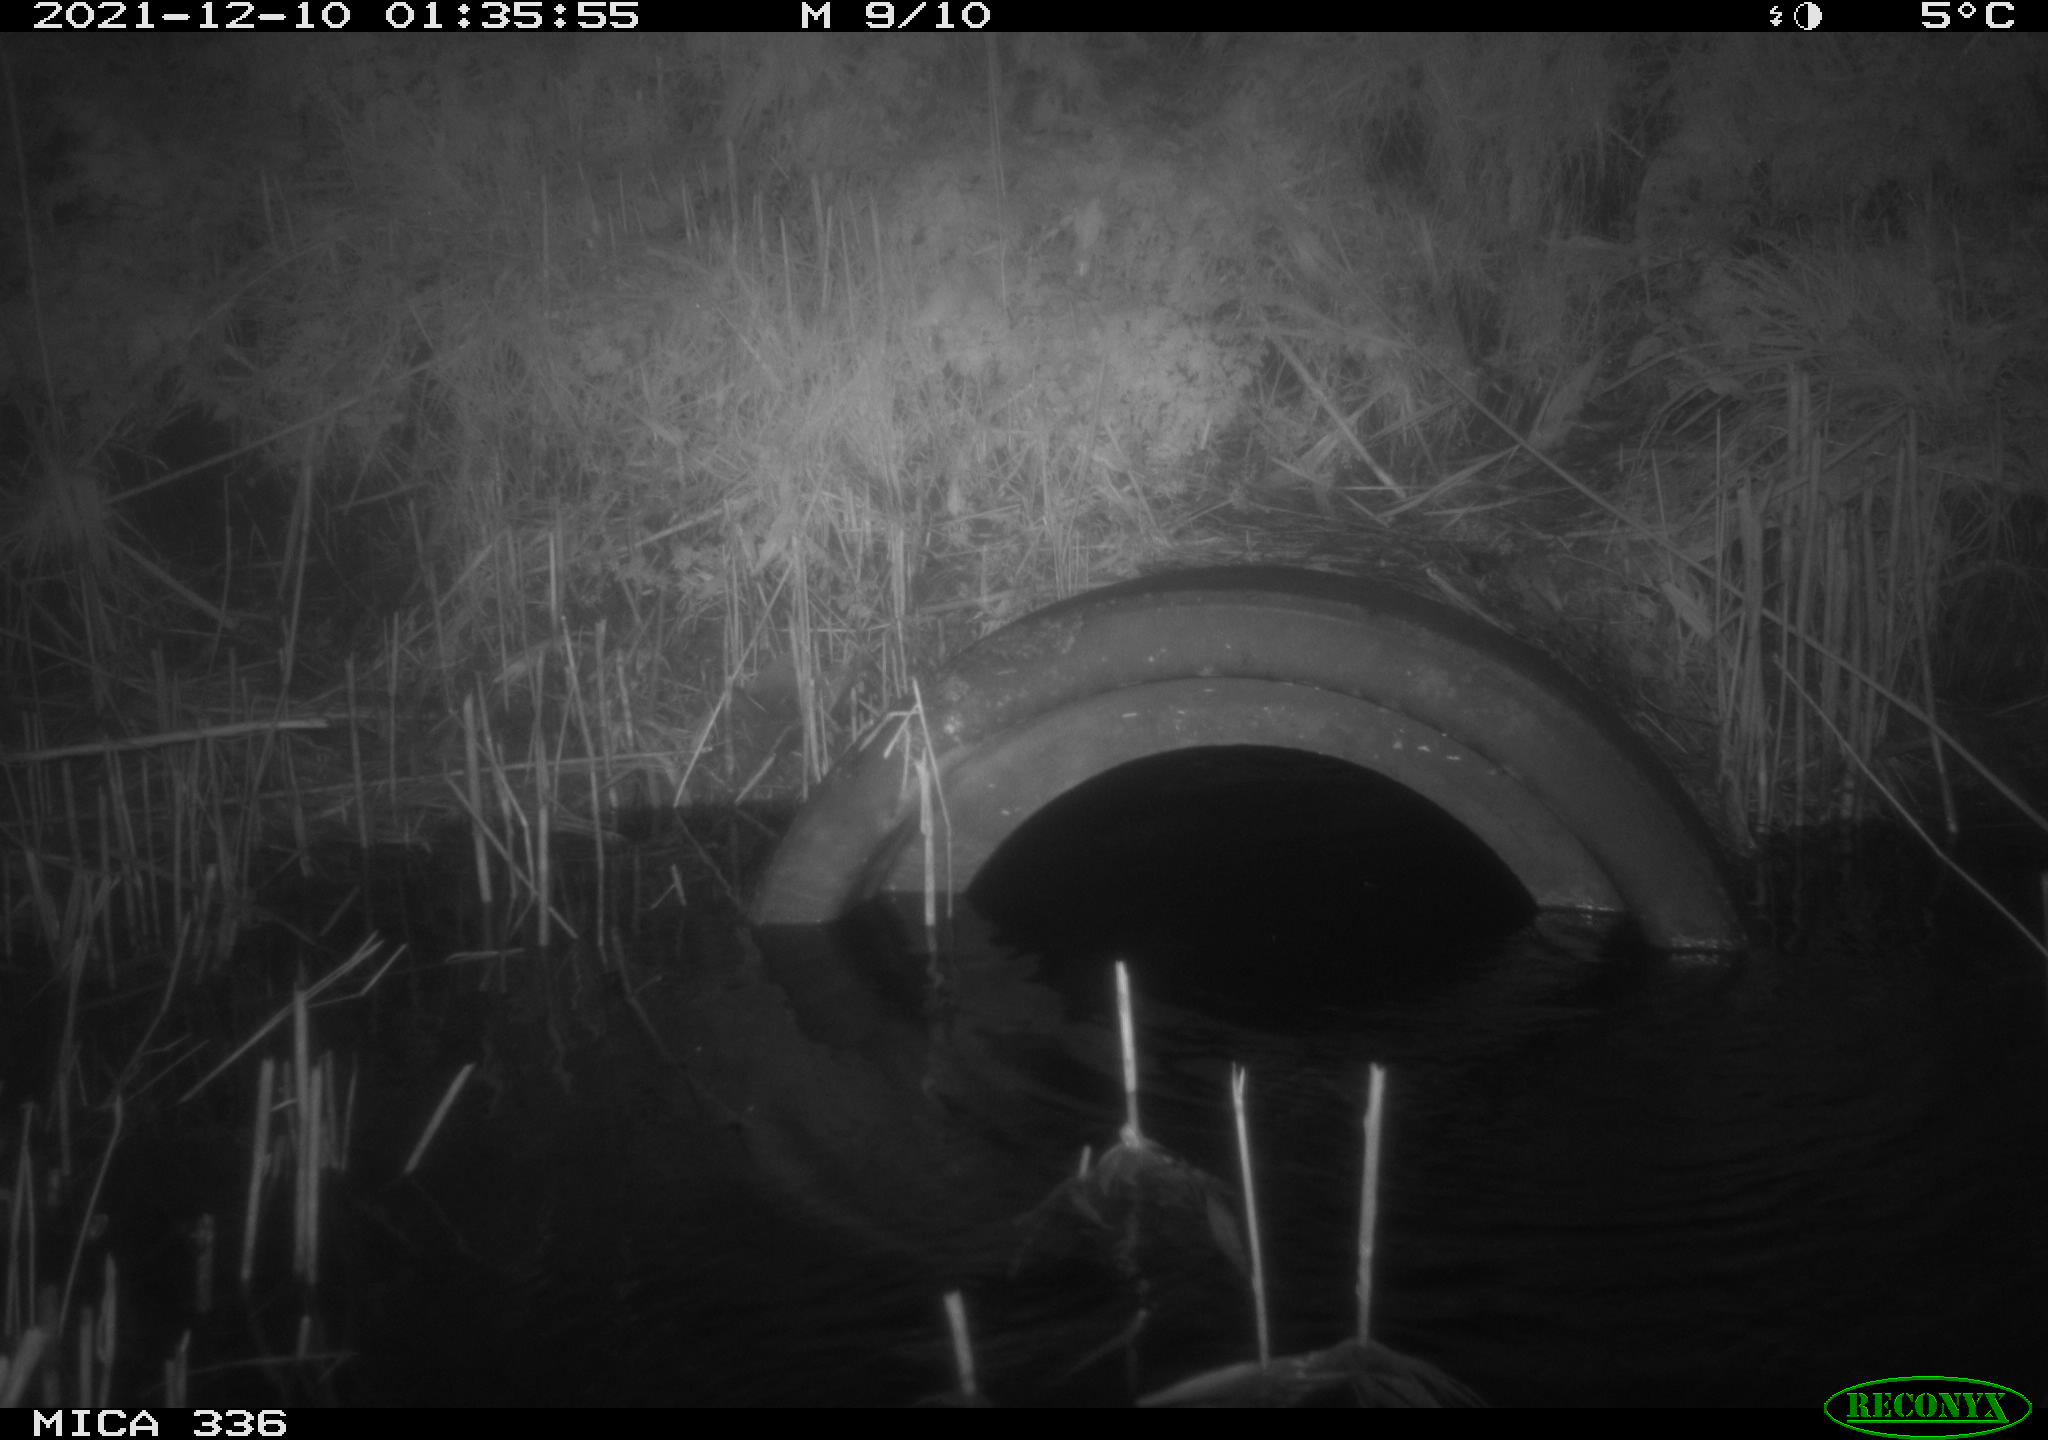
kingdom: Animalia
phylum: Chordata
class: Mammalia
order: Rodentia
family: Muridae
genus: Rattus
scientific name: Rattus norvegicus
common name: Brown rat
